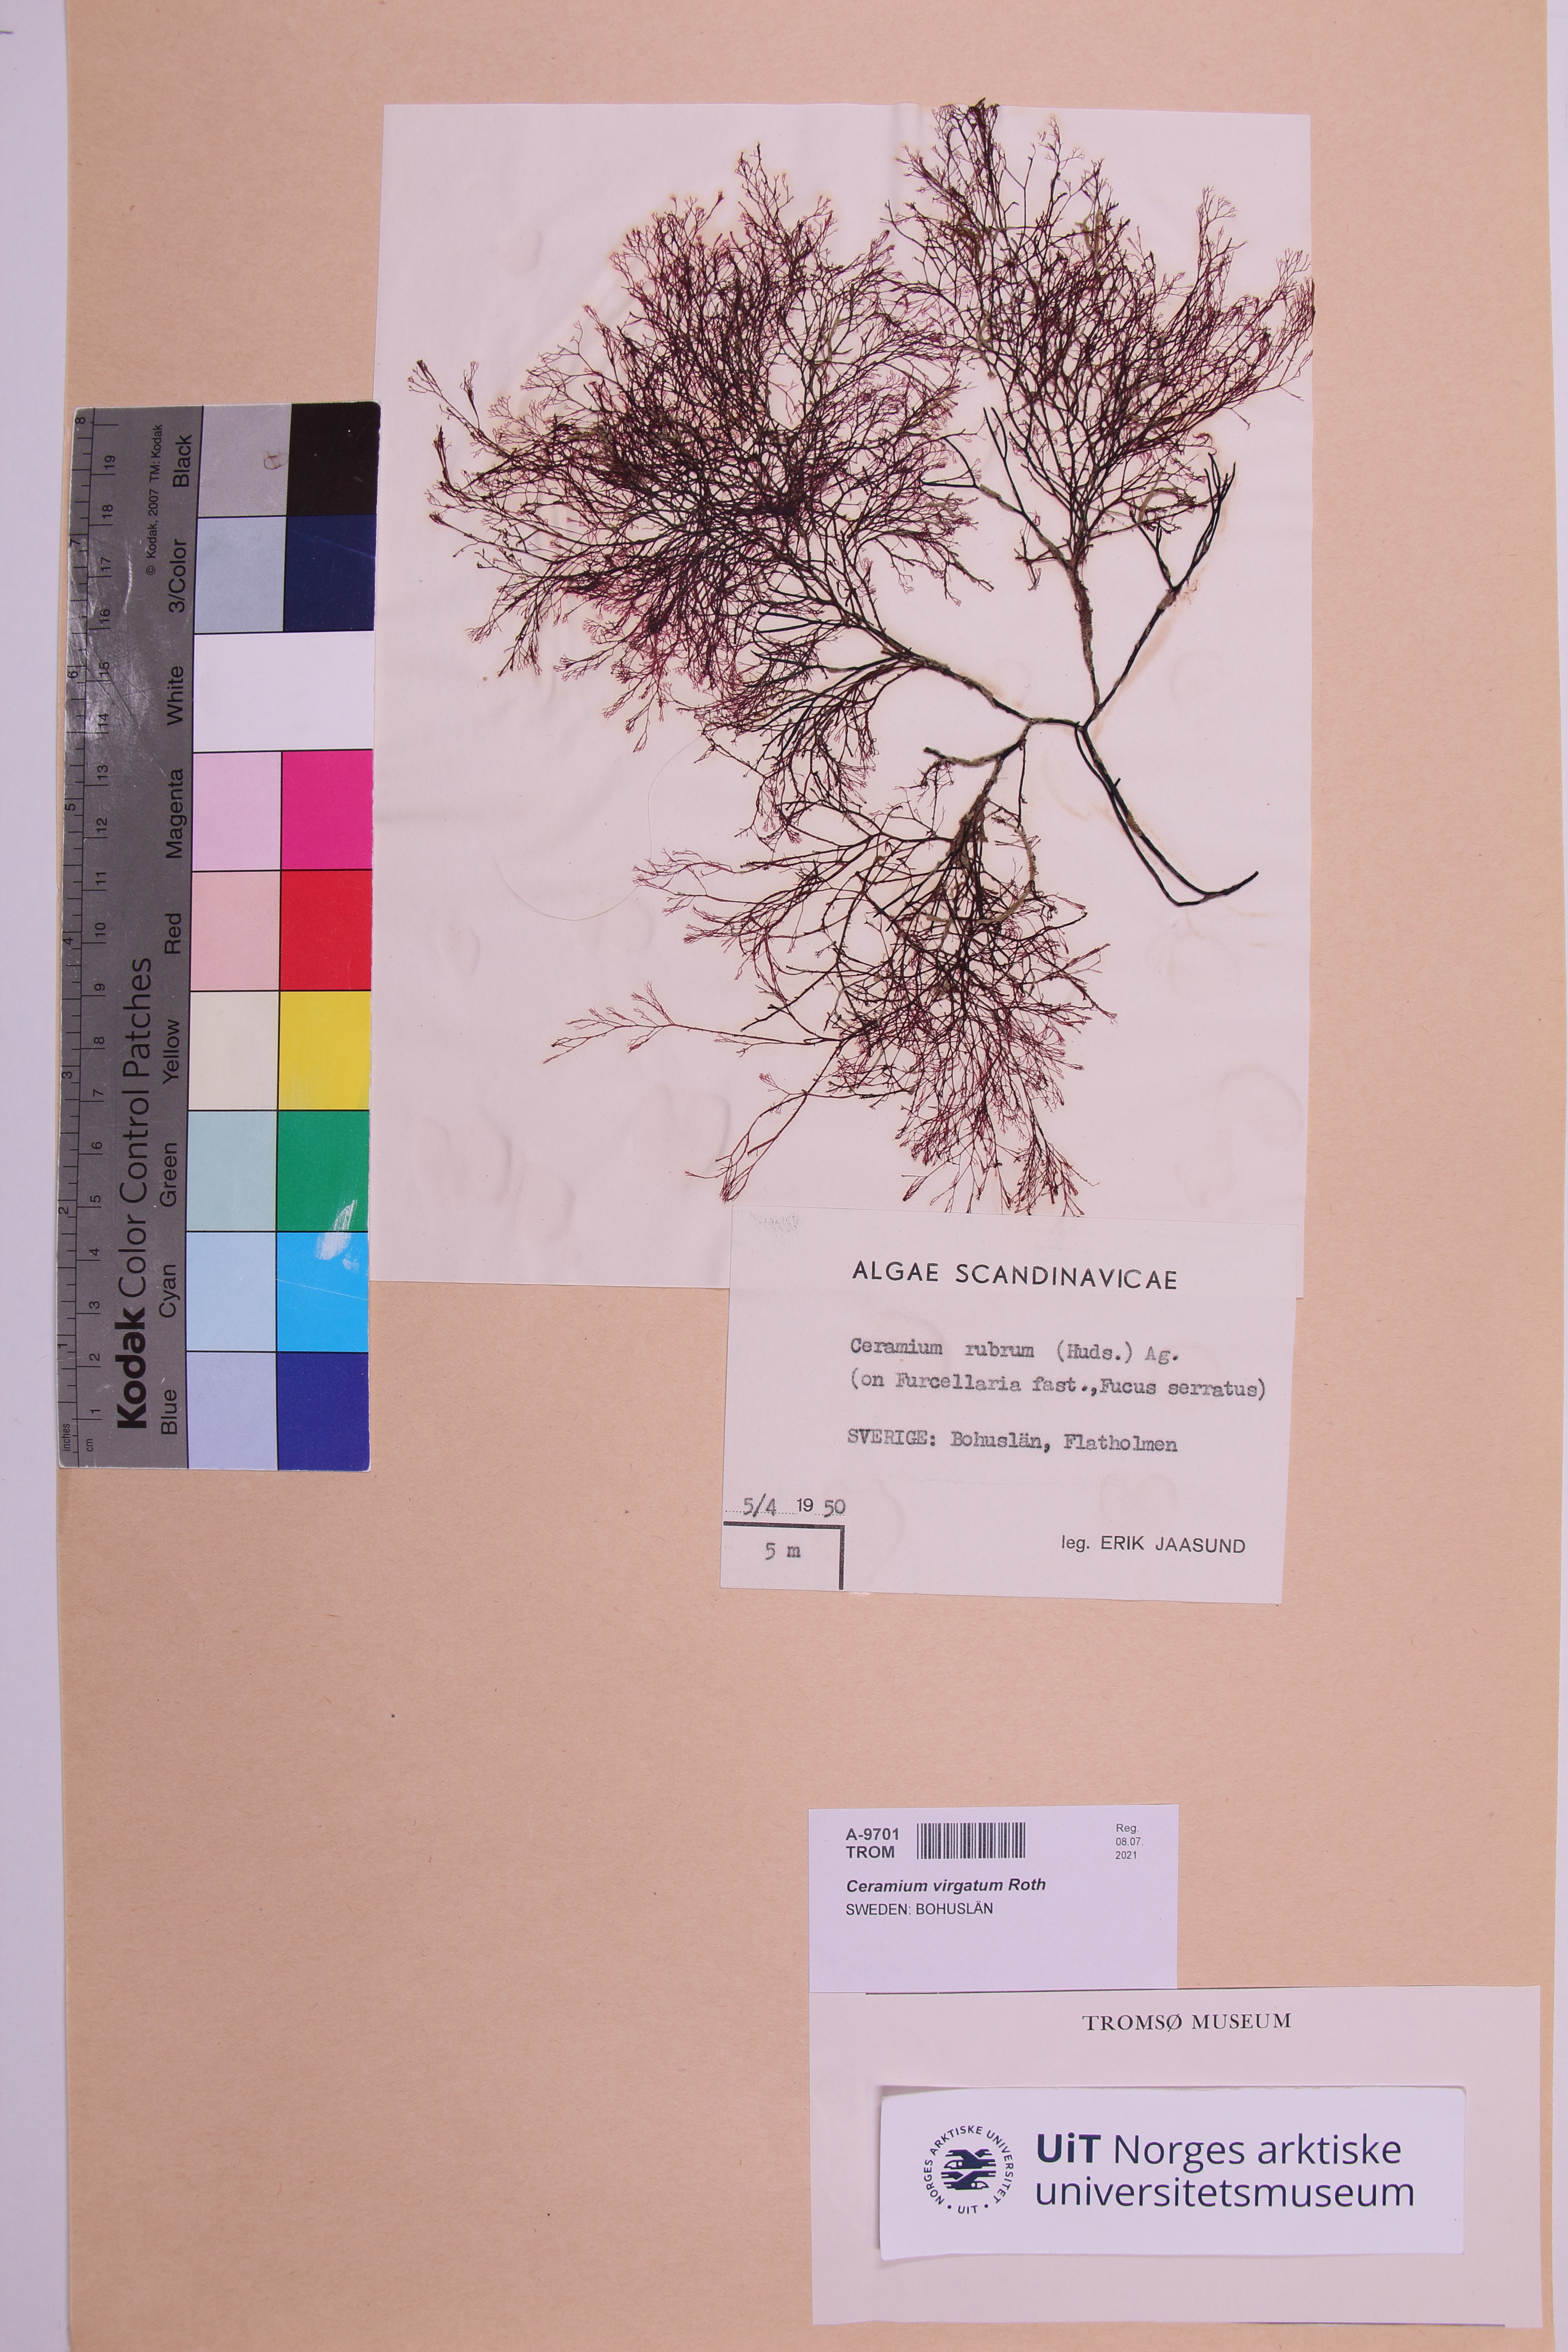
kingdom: Plantae
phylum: Rhodophyta
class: Florideophyceae
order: Ceramiales
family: Ceramiaceae
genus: Ceramium
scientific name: Ceramium virgatum
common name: Red hornweed
